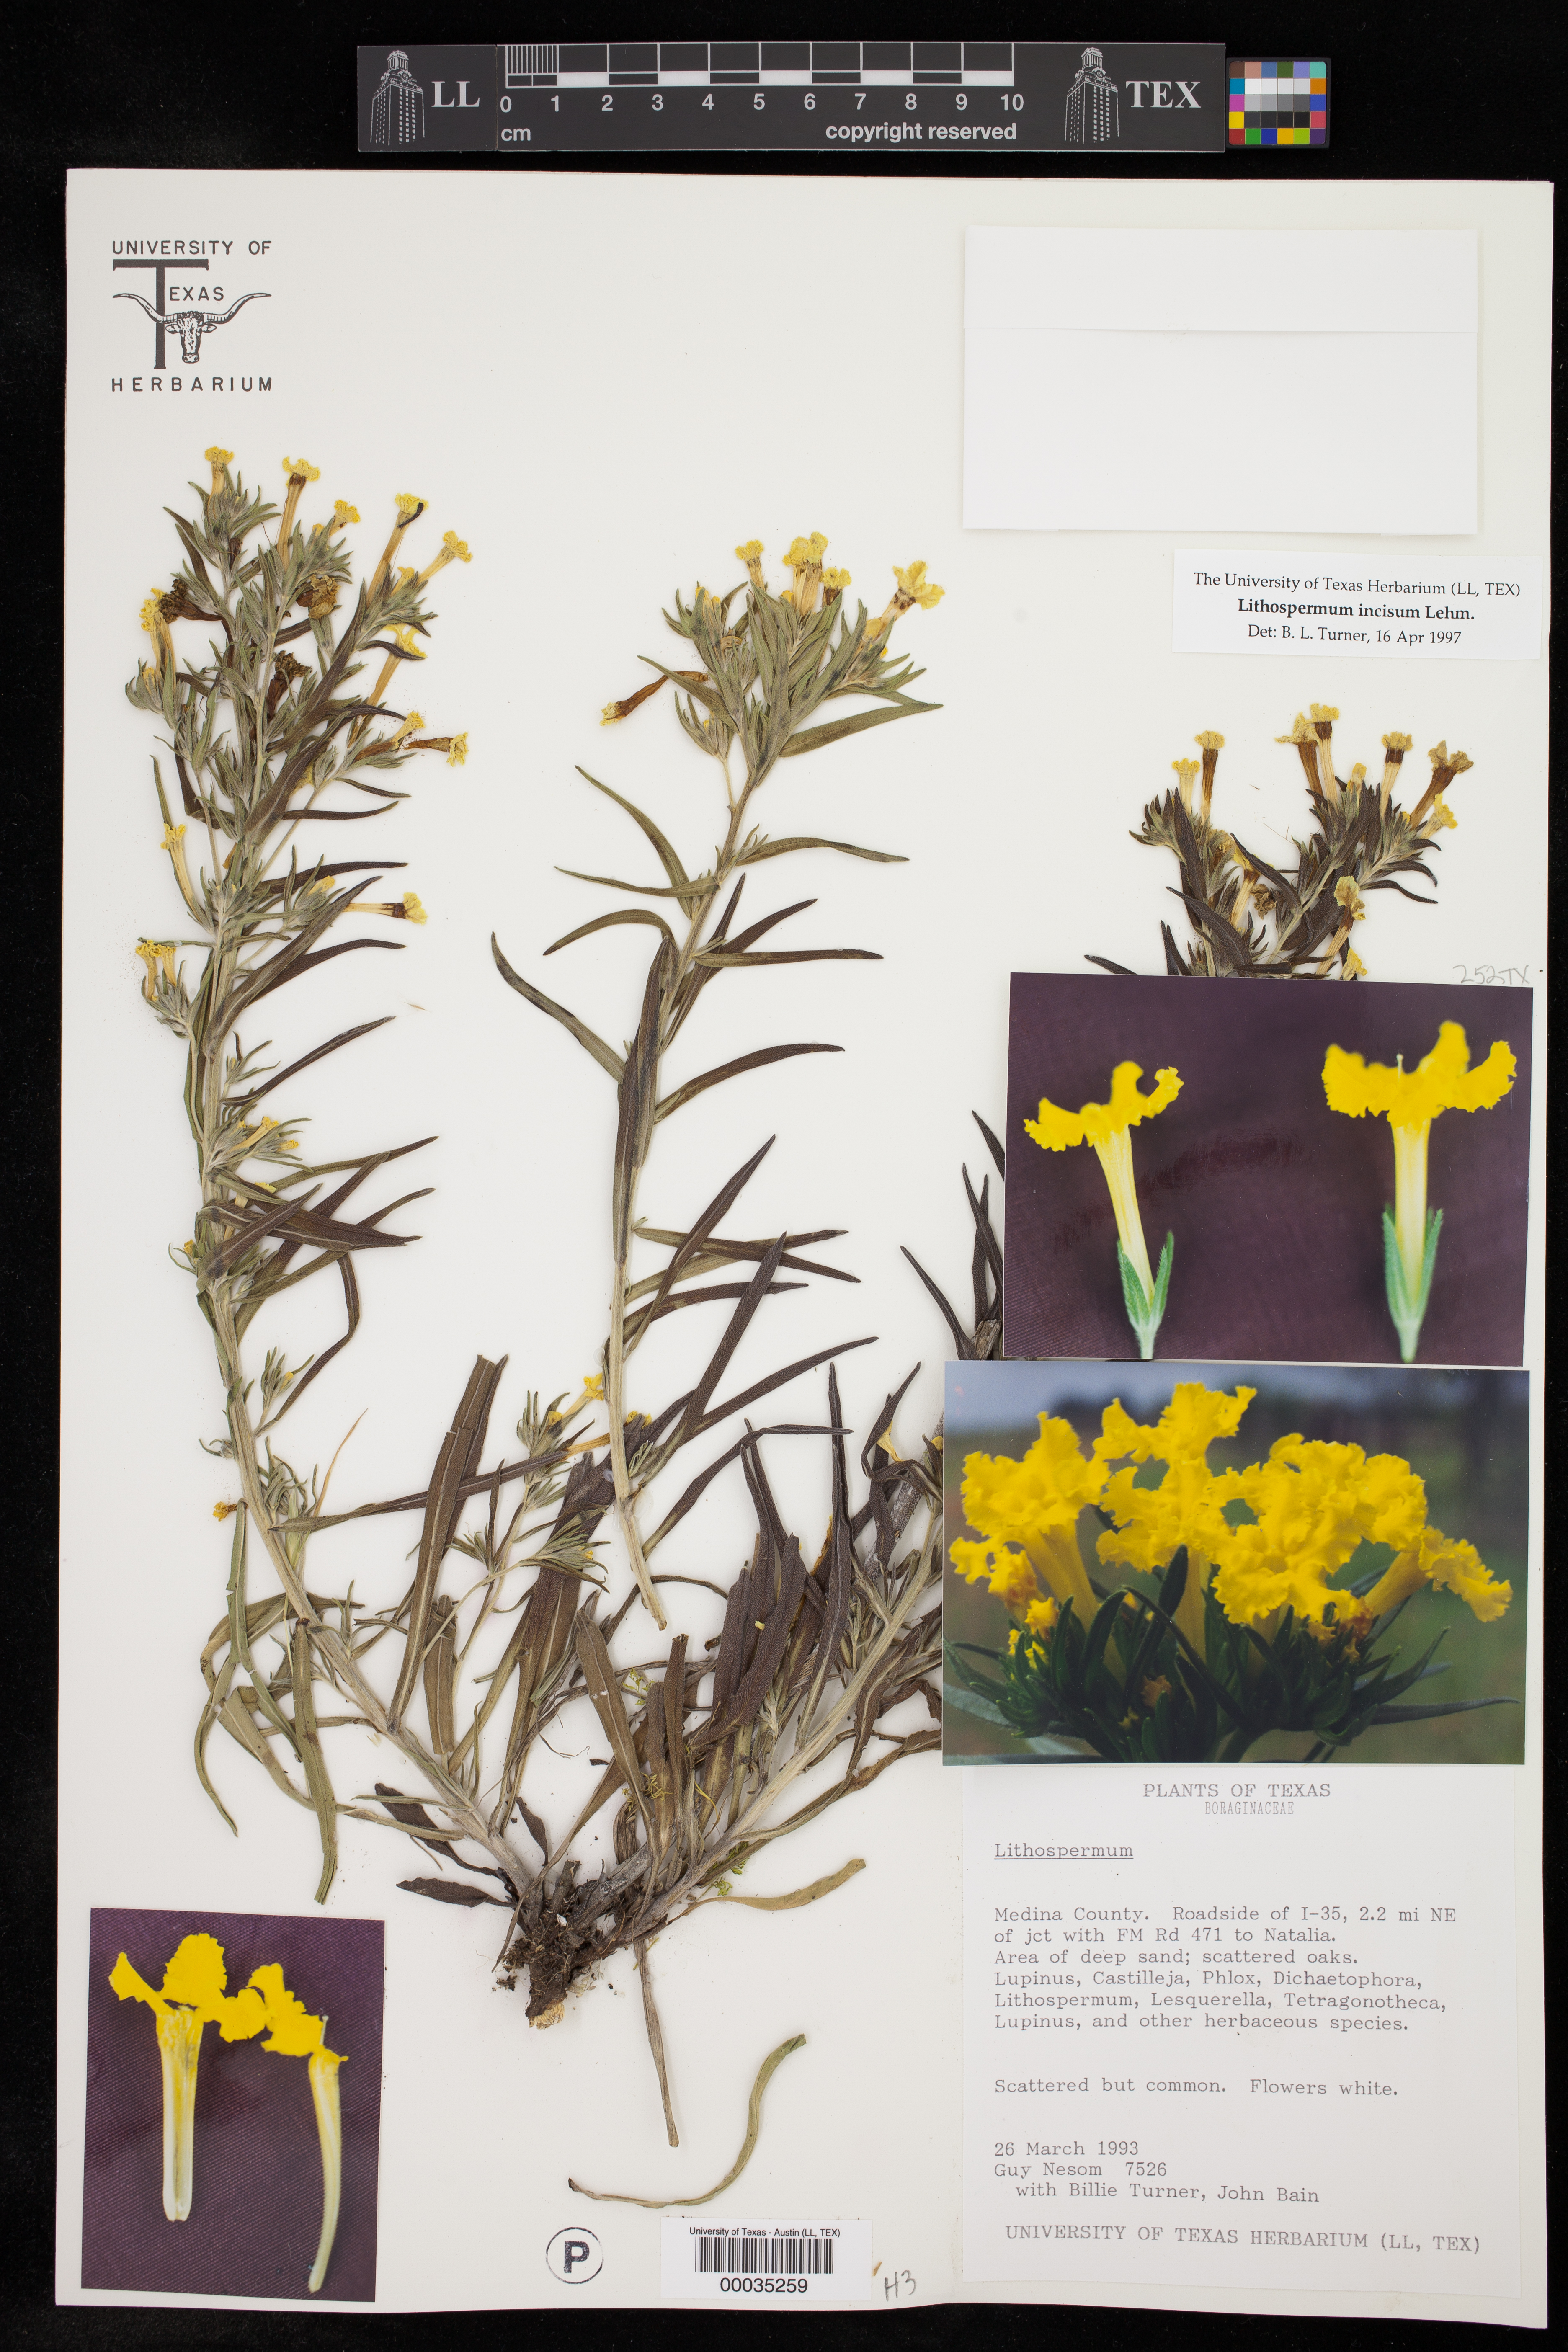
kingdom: Plantae
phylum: Tracheophyta
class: Magnoliopsida
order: Boraginales
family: Boraginaceae
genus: Lithospermum
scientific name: Lithospermum incisum
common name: Fringed gromwell
